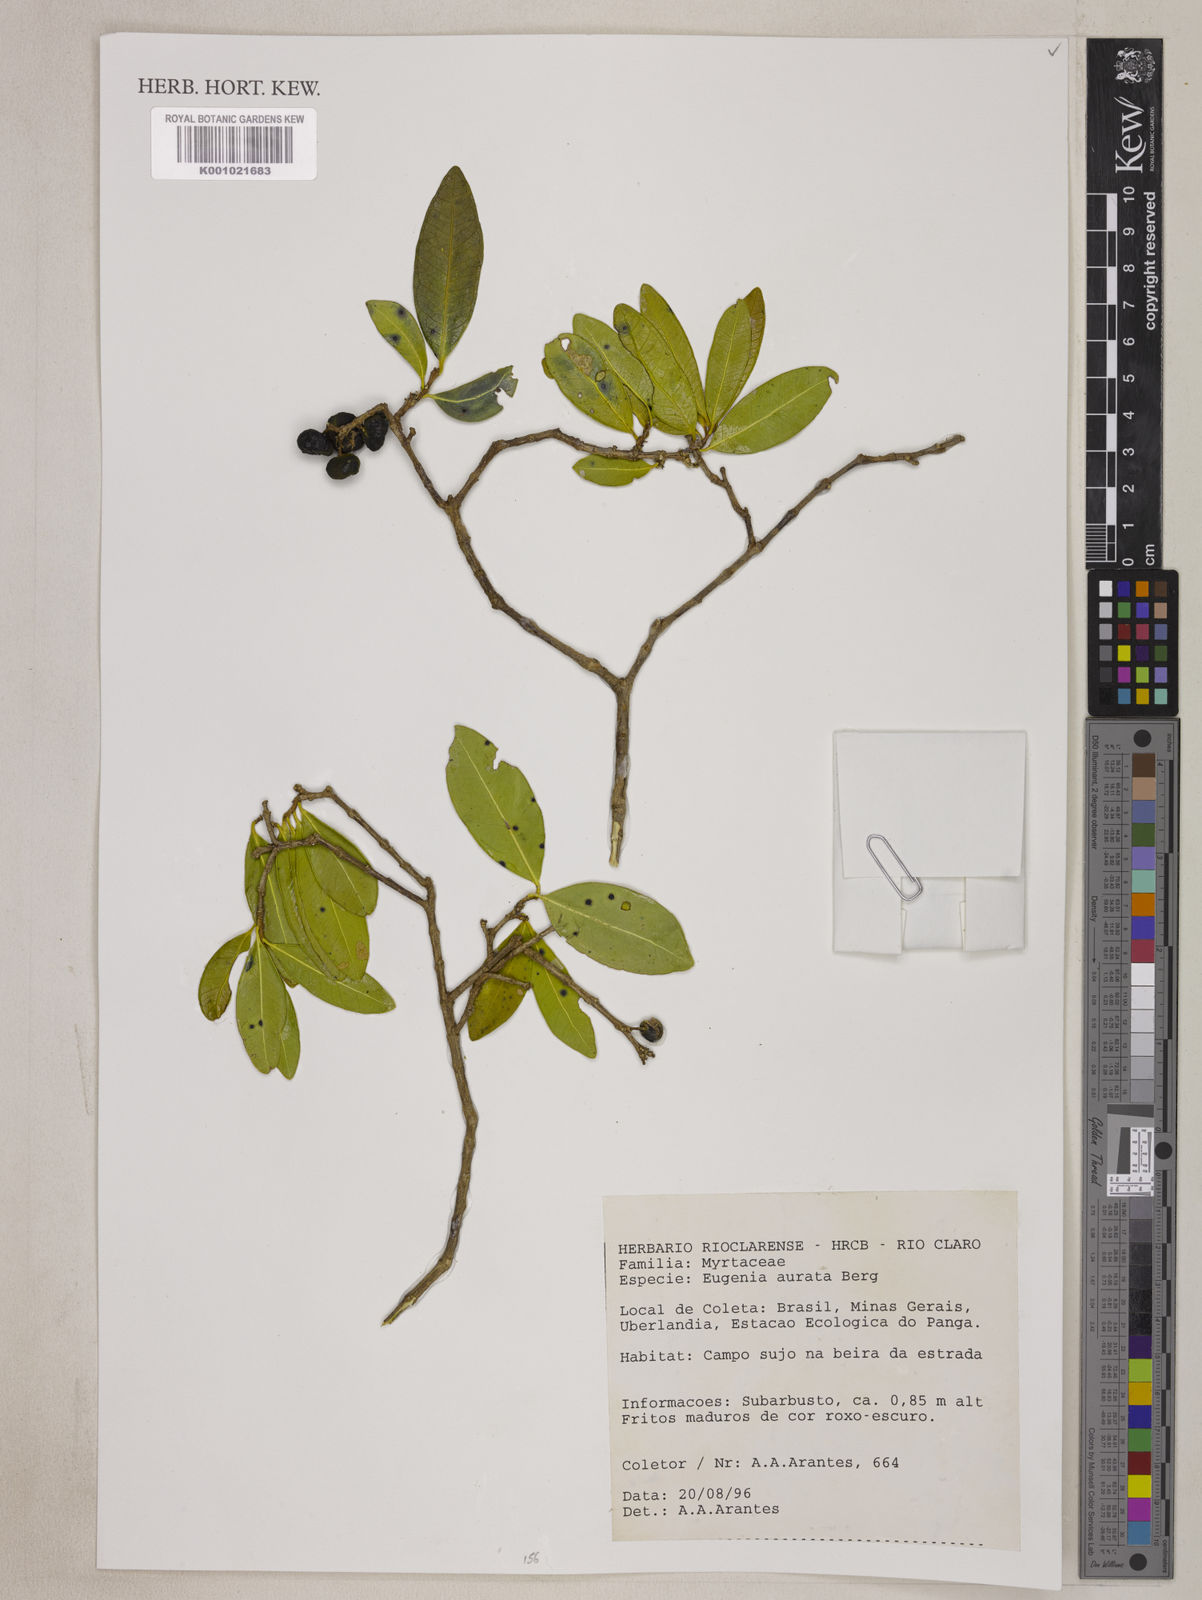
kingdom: Plantae
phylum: Tracheophyta
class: Magnoliopsida
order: Myrtales
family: Myrtaceae
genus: Eugenia
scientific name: Eugenia aurata
